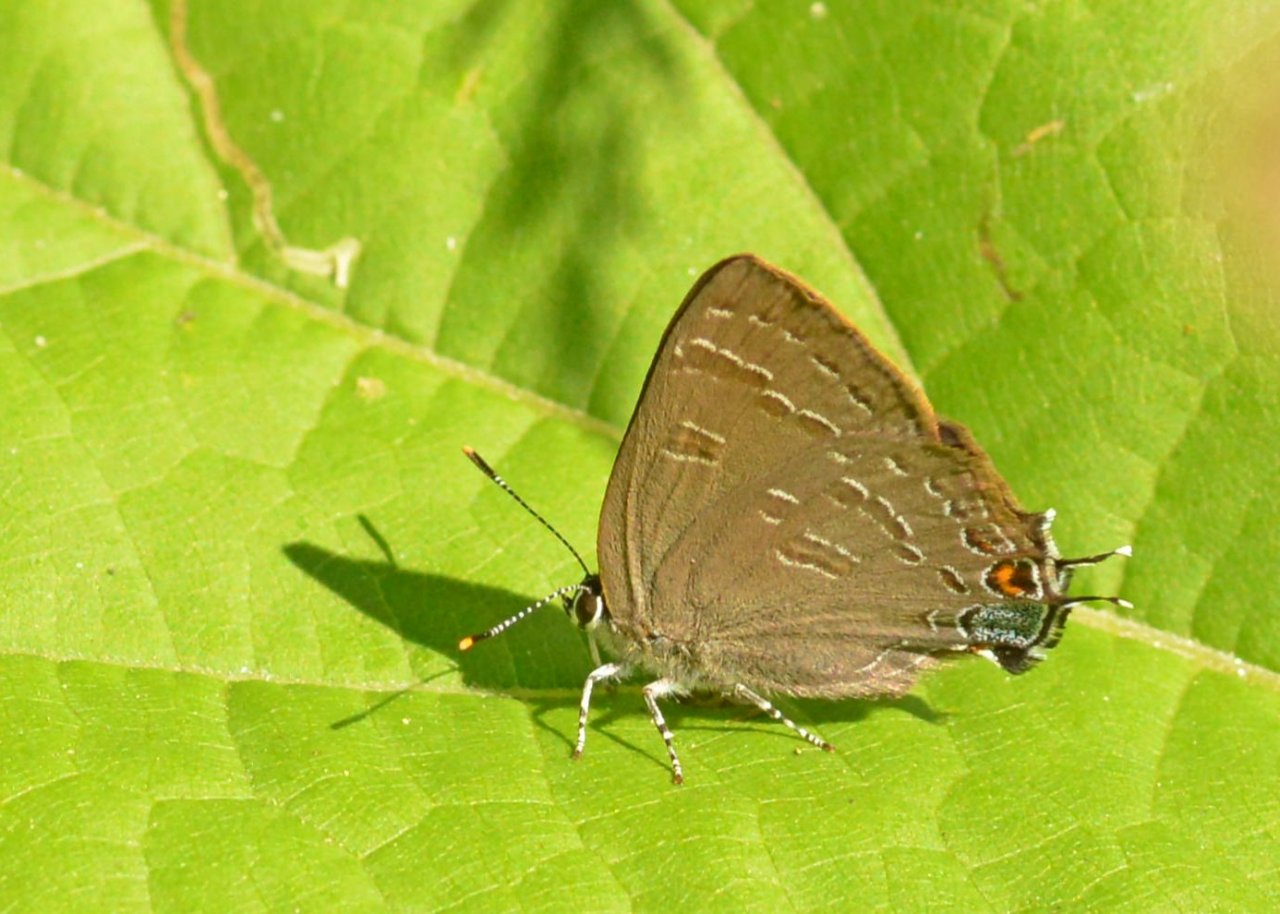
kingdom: Animalia
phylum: Arthropoda
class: Insecta
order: Lepidoptera
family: Lycaenidae
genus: Satyrium
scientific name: Satyrium calanus
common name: Banded Hairstreak
